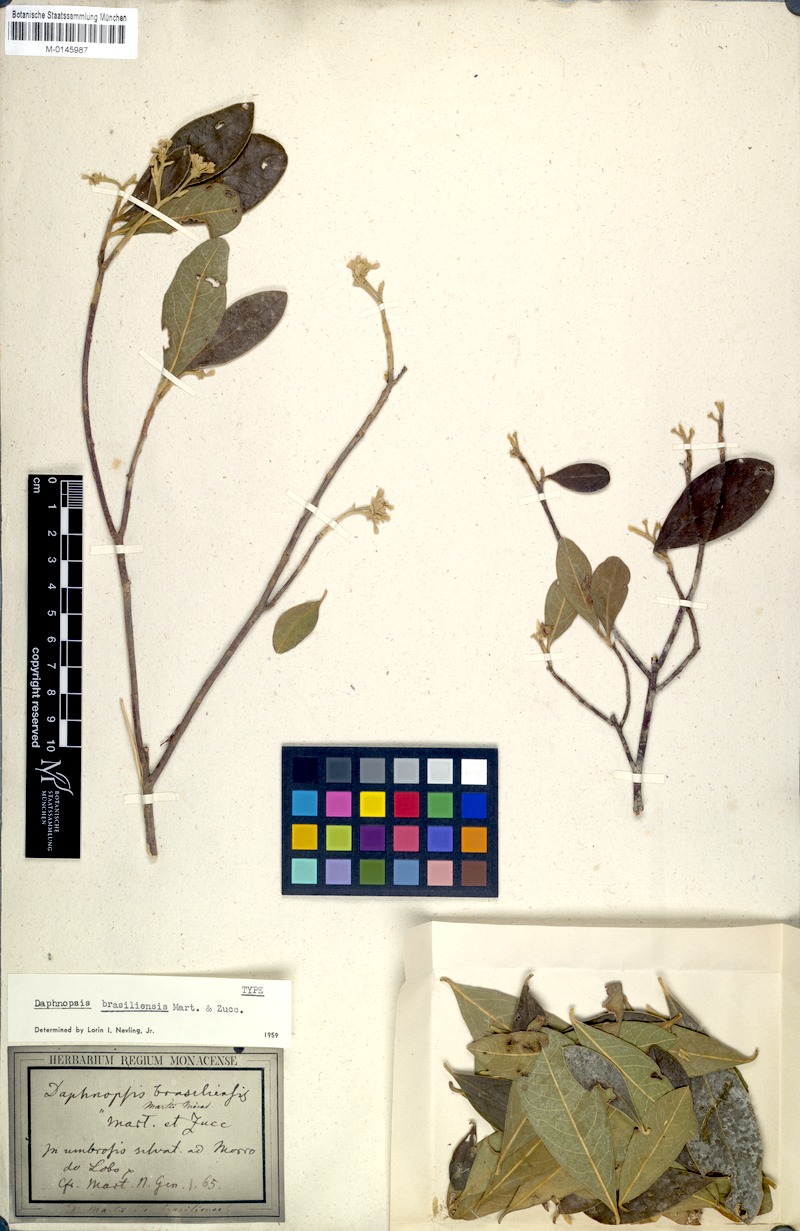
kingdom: Plantae
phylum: Tracheophyta
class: Magnoliopsida
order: Malvales
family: Thymelaeaceae
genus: Daphnopsis
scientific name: Daphnopsis brasiliensis
